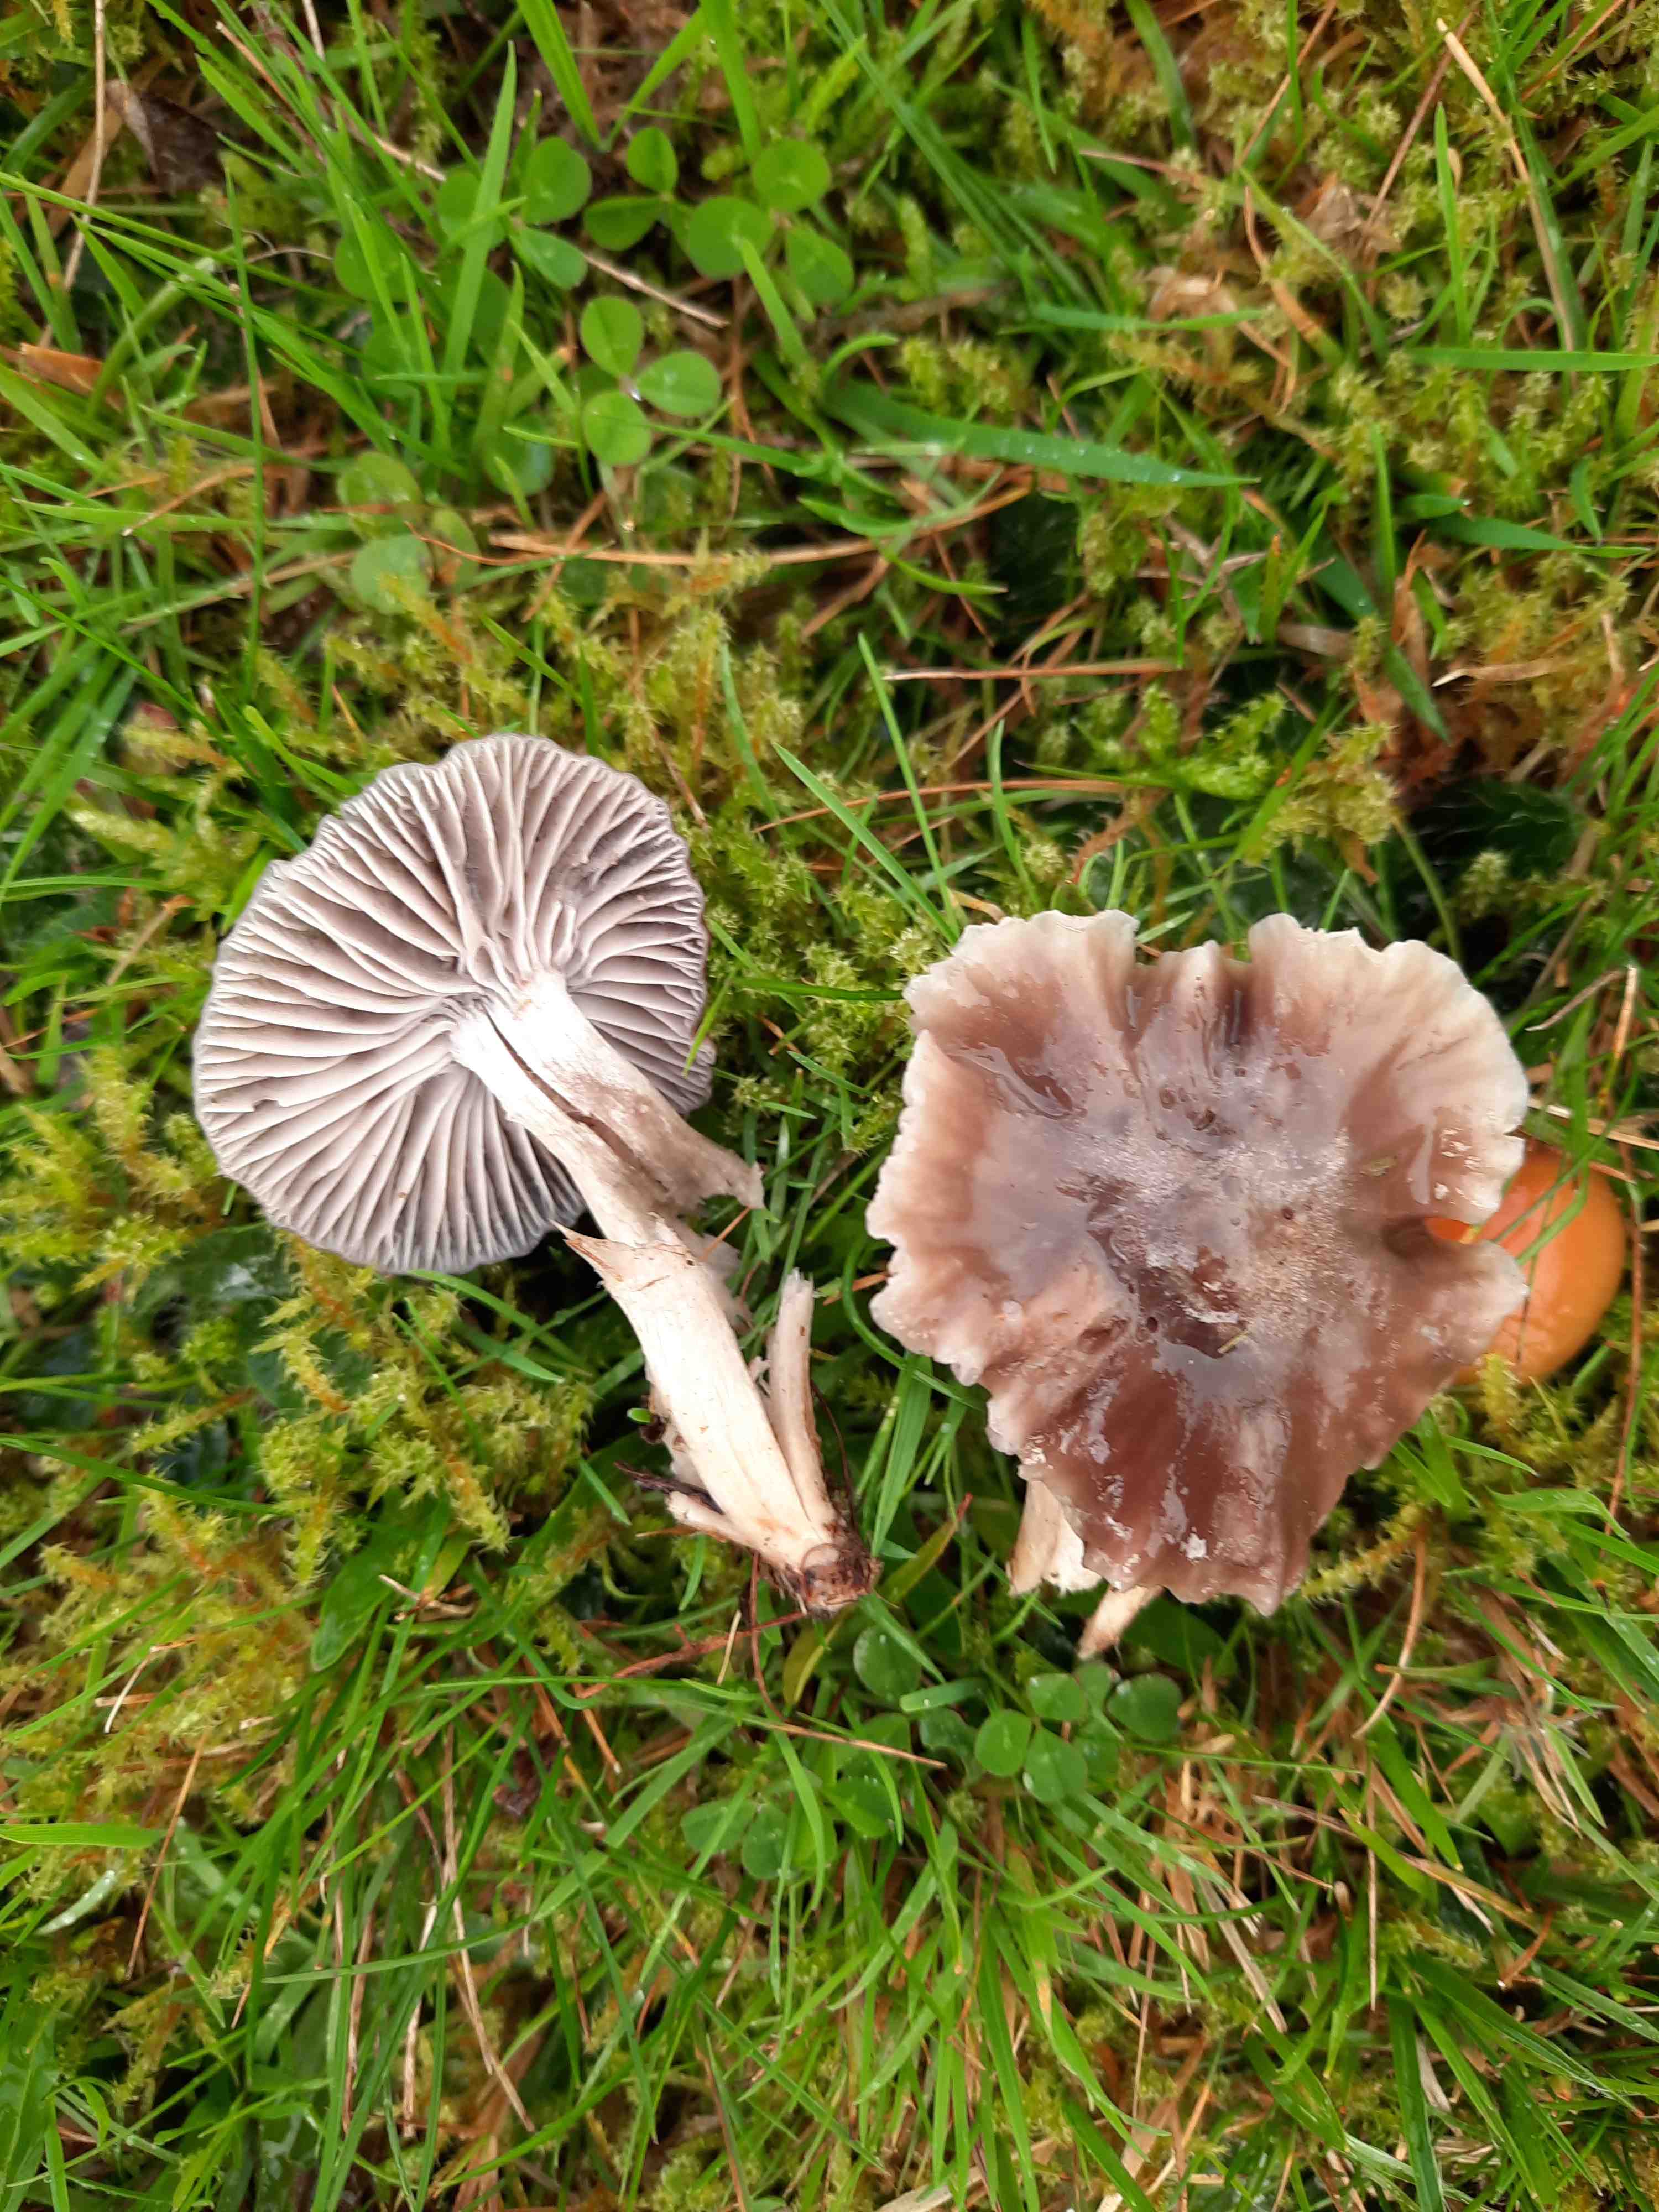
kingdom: Fungi
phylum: Basidiomycota
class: Agaricomycetes
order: Agaricales
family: Hygrophoraceae
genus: Cuphophyllus
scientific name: Cuphophyllus flavipes
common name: gulfodet vokshat
